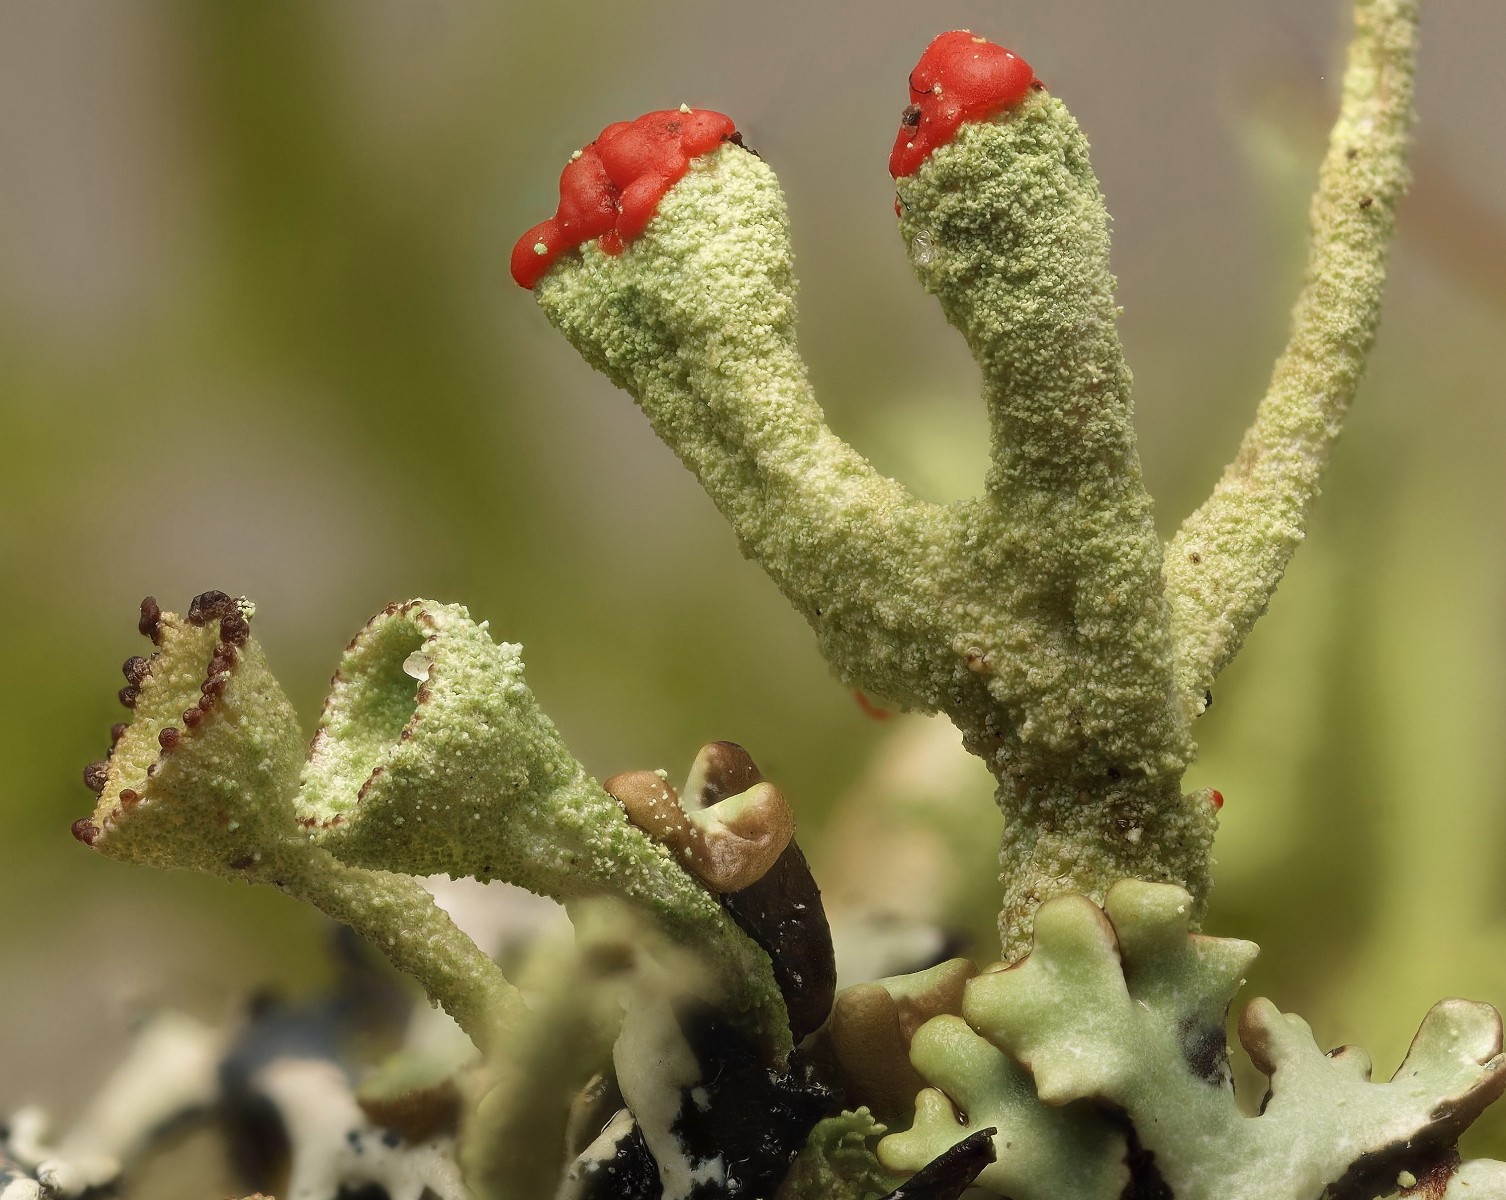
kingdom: Fungi
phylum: Ascomycota
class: Lecanoromycetes
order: Lecanorales
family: Cladoniaceae
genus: Cladonia
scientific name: Cladonia floerkeana
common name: lakrød bægerlav
